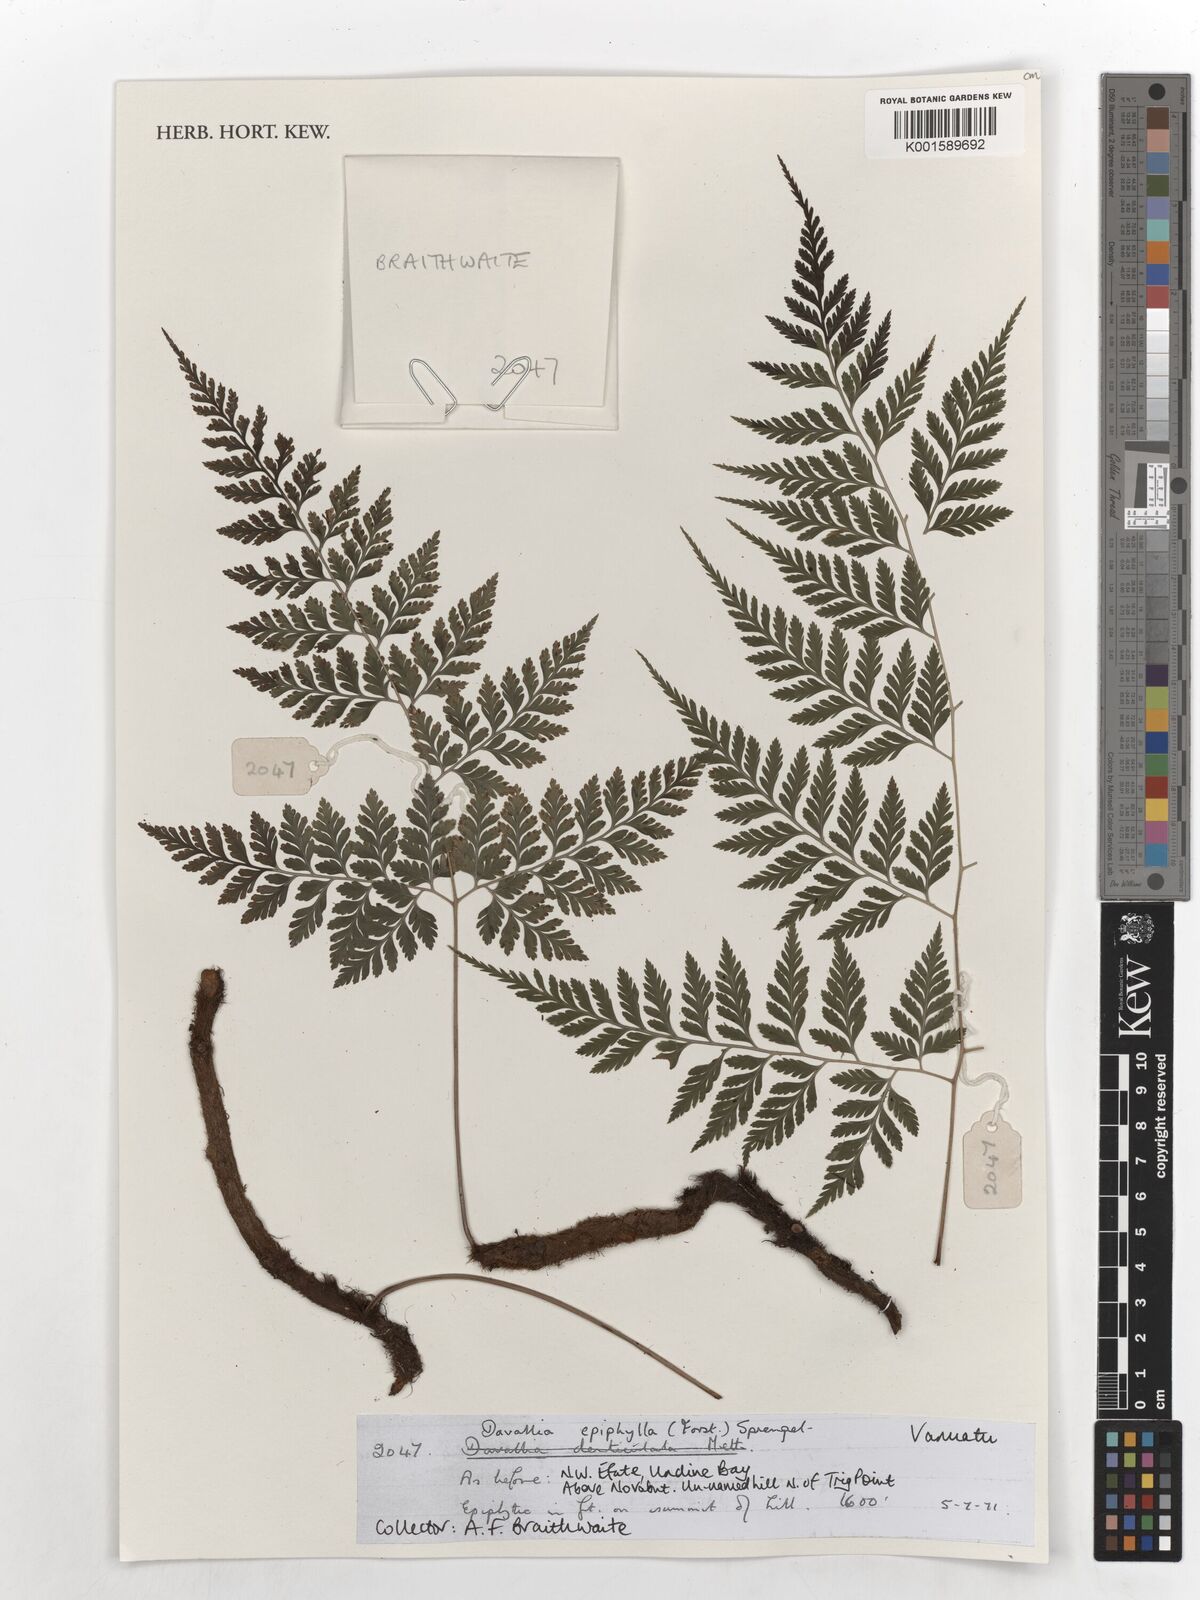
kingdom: Plantae
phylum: Tracheophyta
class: Polypodiopsida
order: Polypodiales
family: Davalliaceae
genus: Davallia
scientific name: Davallia epiphyll
